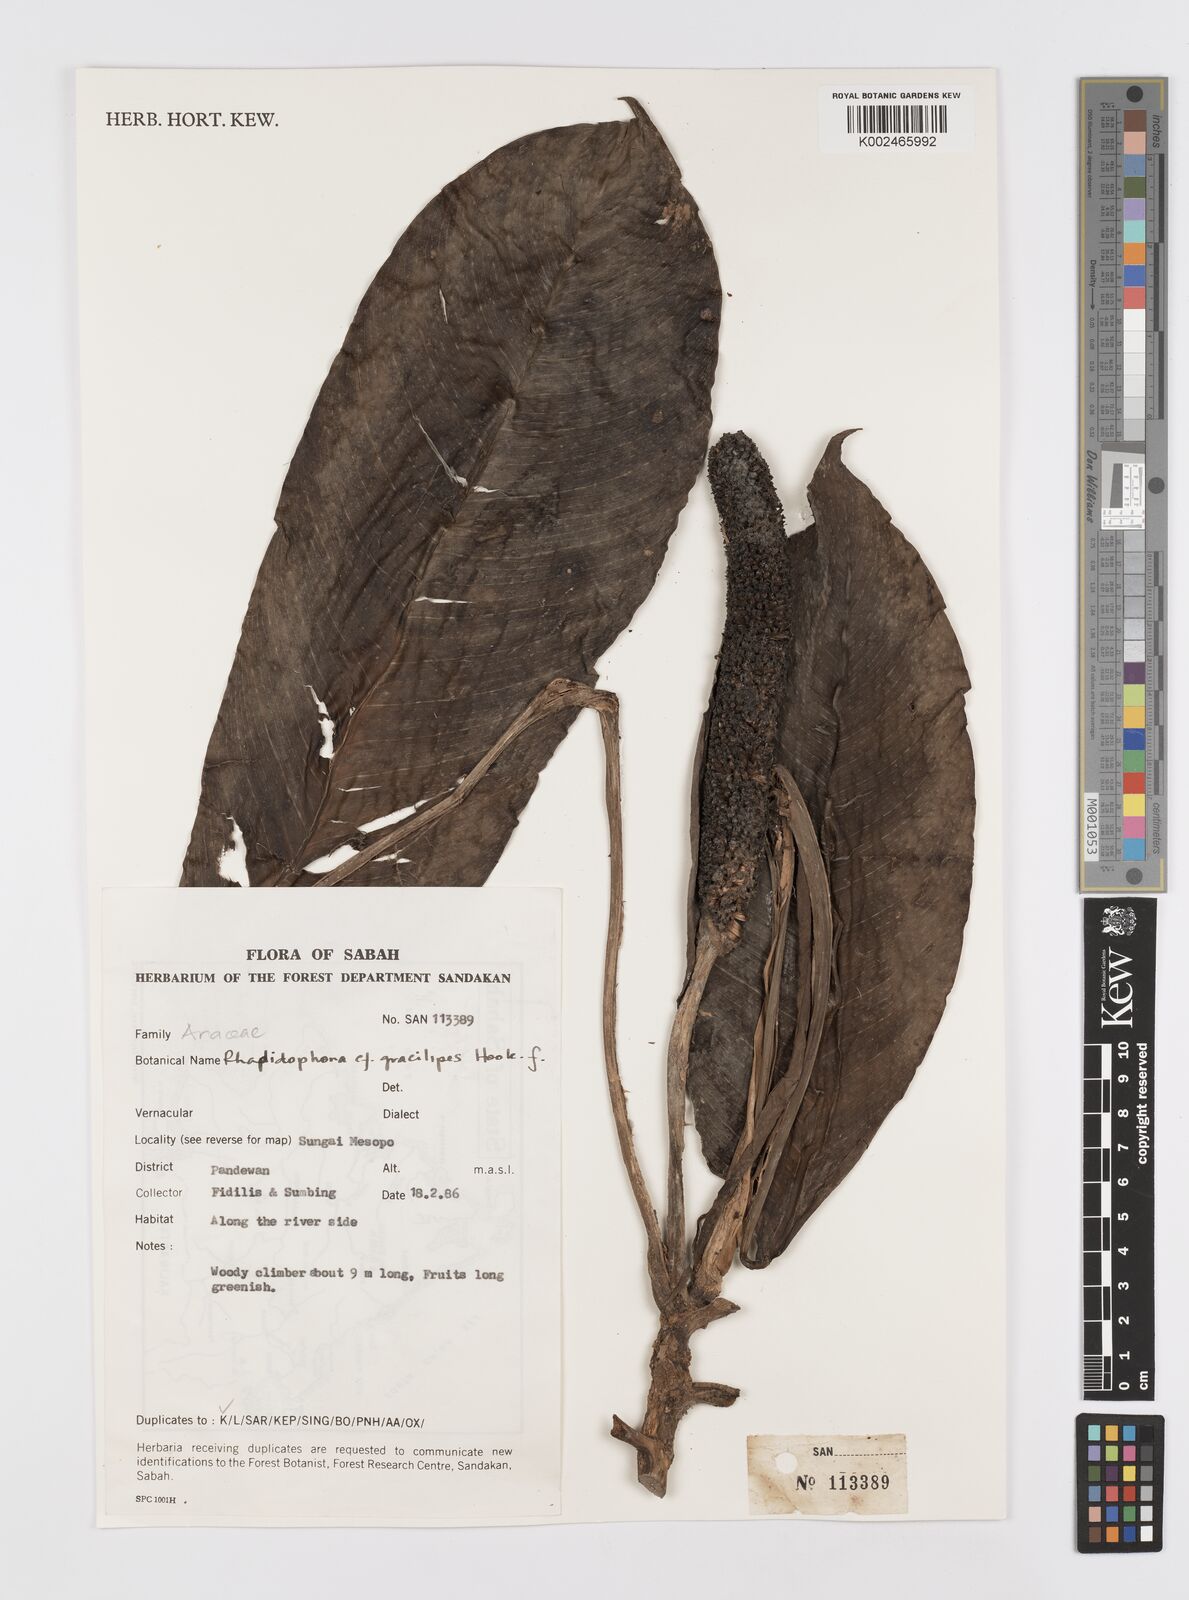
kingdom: Plantae
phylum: Tracheophyta
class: Liliopsida
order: Alismatales
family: Araceae
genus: Rhaphidophora
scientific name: Rhaphidophora puberula
